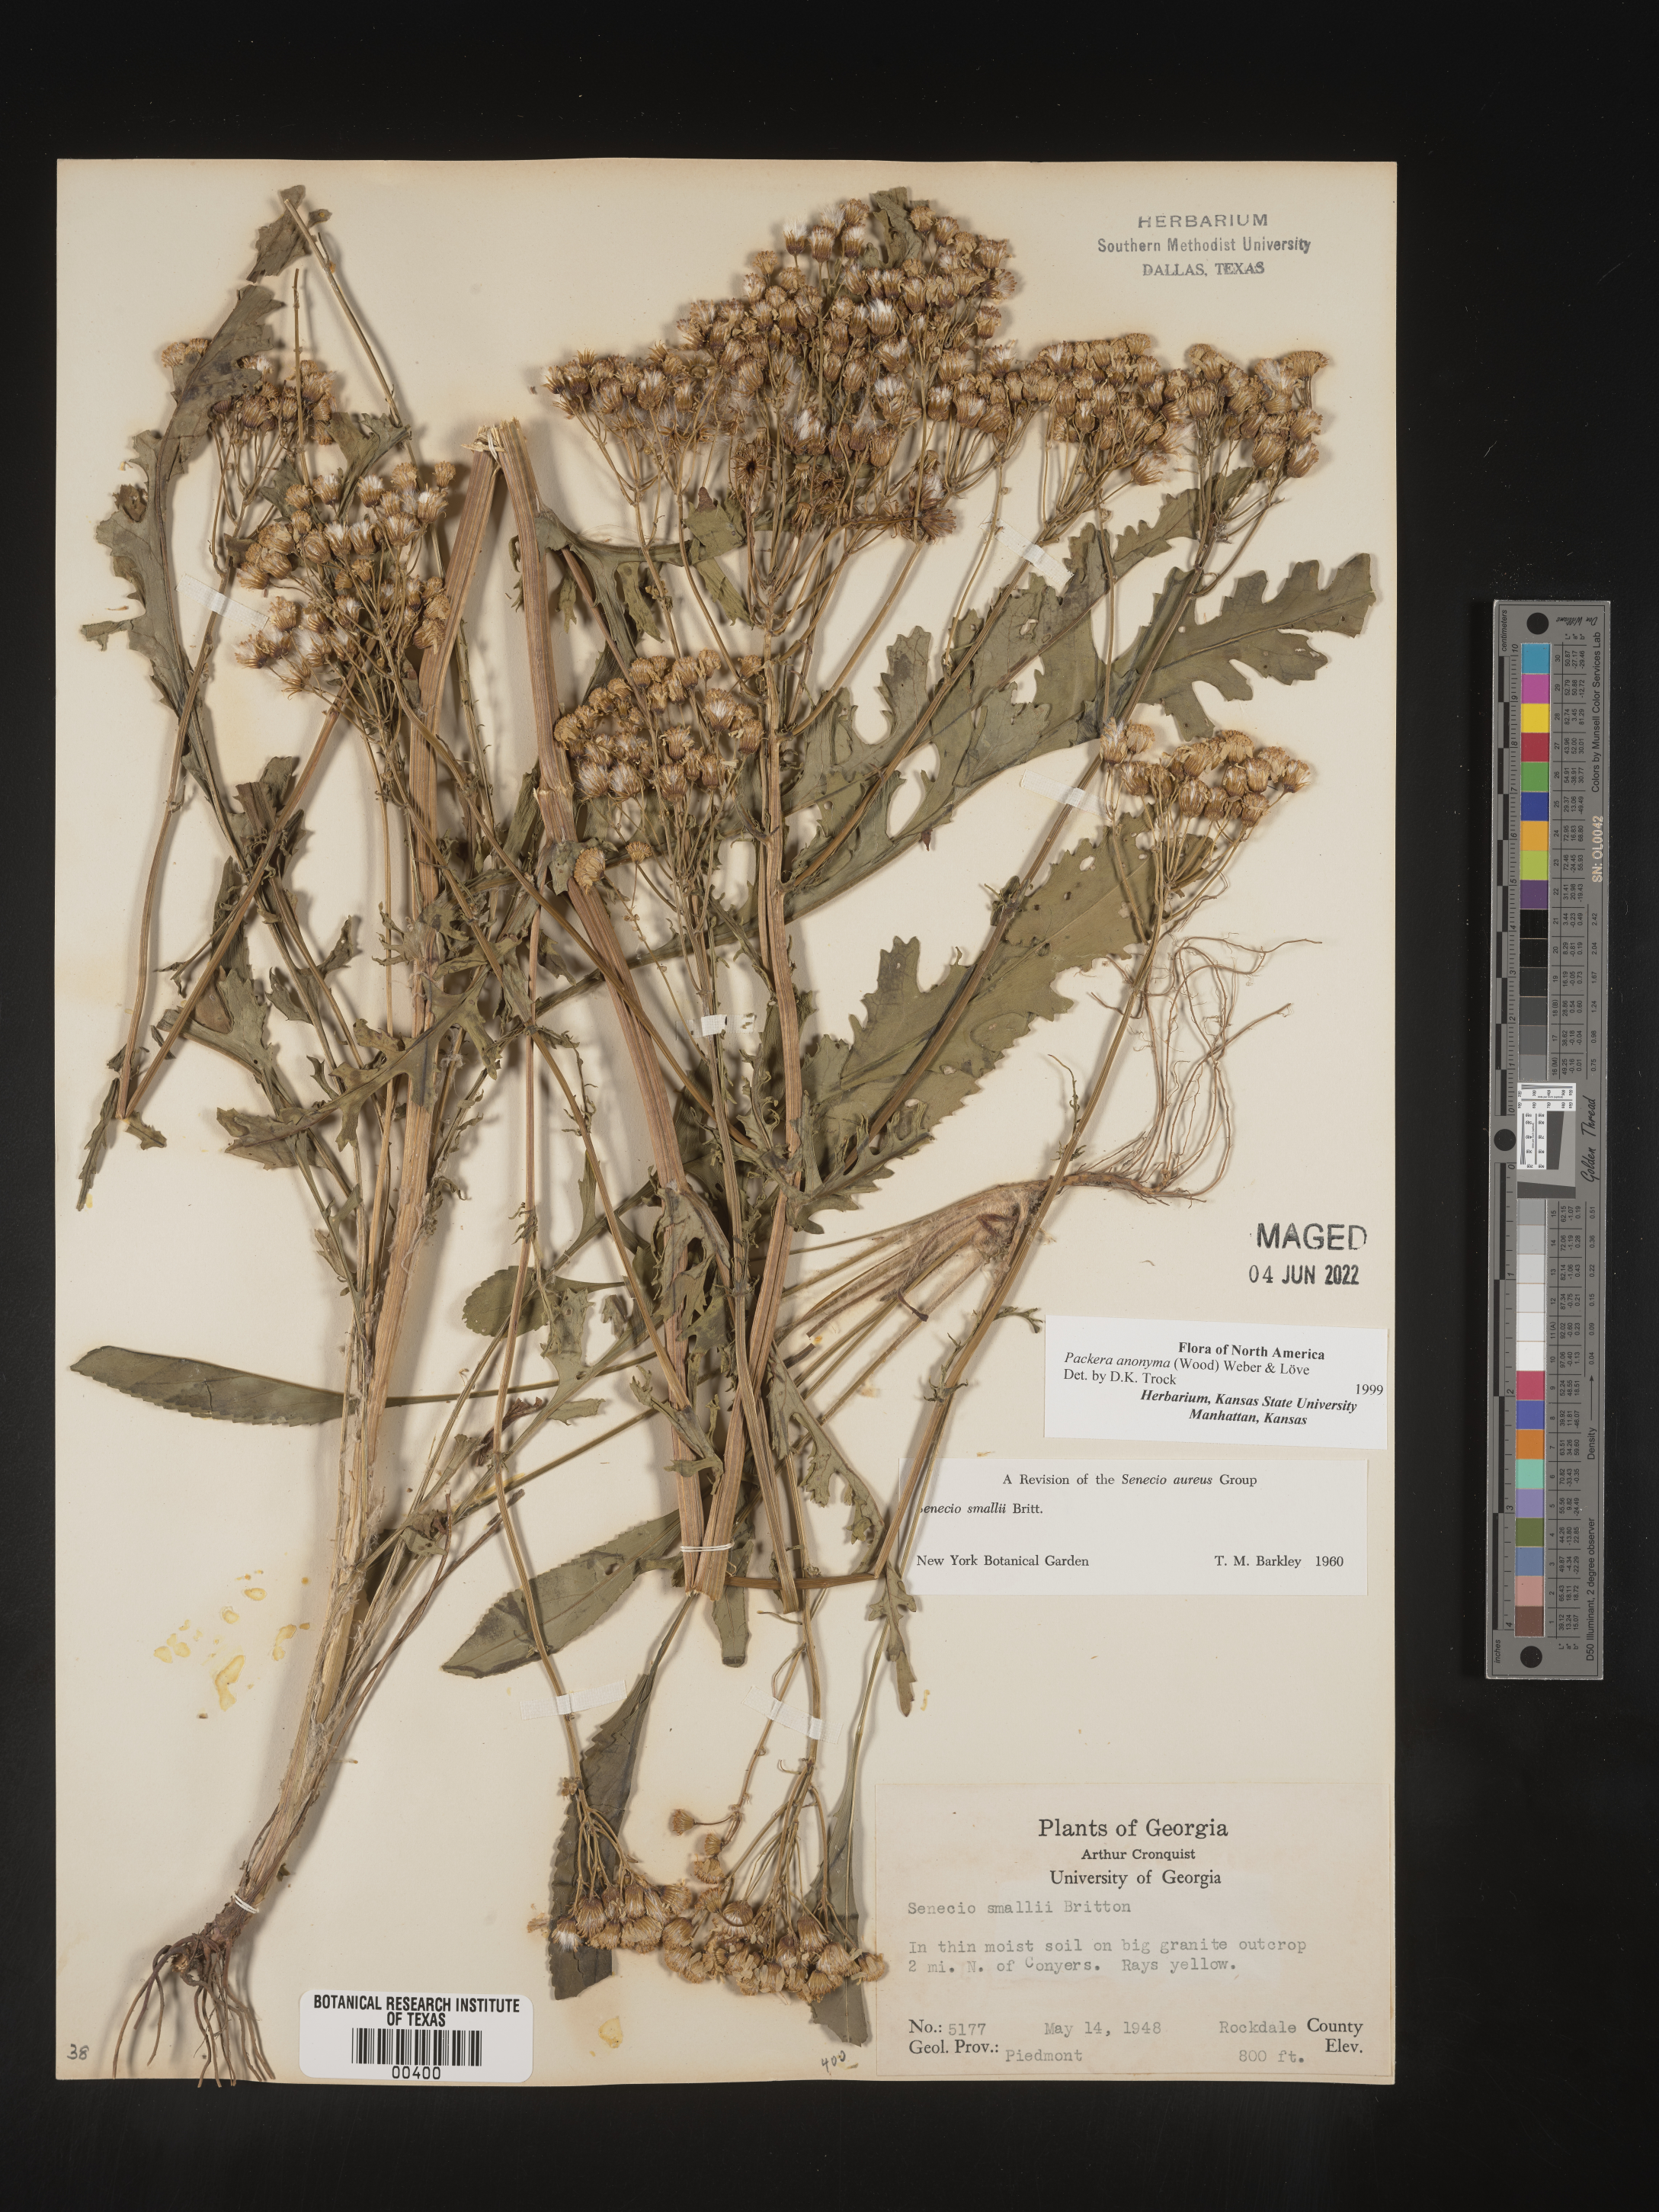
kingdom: Plantae
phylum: Tracheophyta
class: Magnoliopsida
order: Asterales
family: Asteraceae
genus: Packera
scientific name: Packera anonyma
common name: Small ragwort
